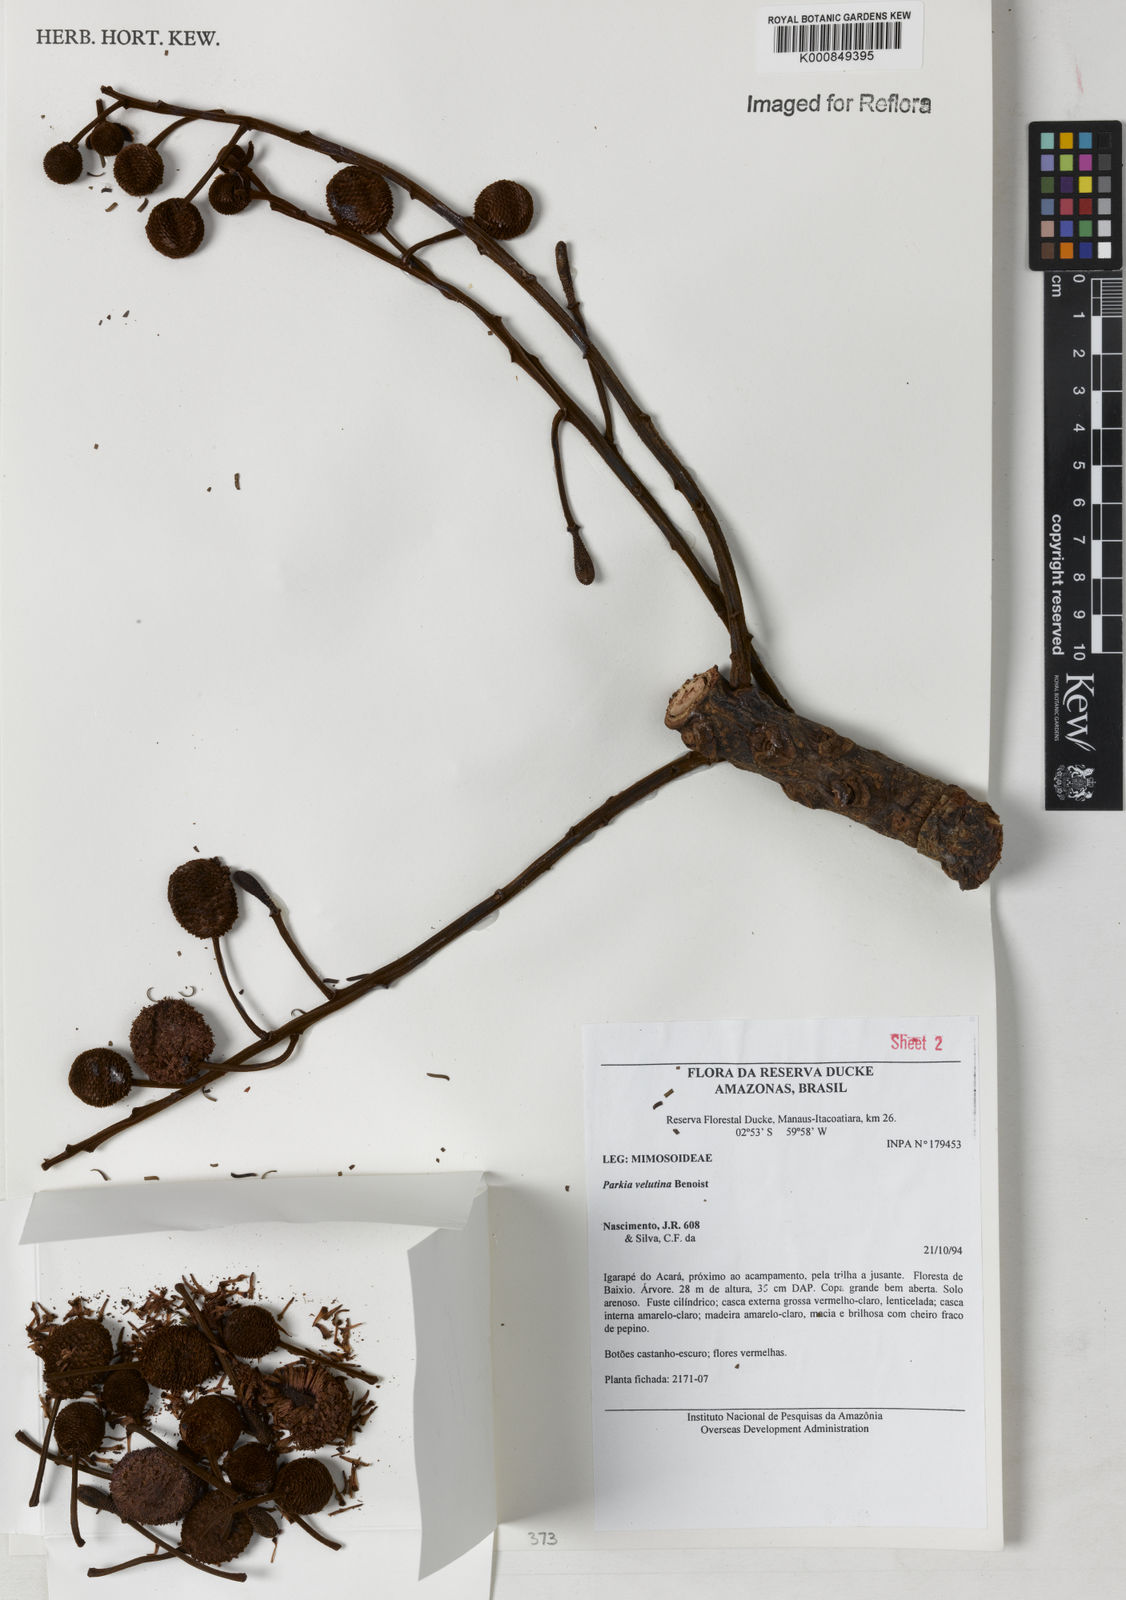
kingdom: Plantae
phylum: Tracheophyta
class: Magnoliopsida
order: Fabales
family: Fabaceae
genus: Parkia
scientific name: Parkia velutina
